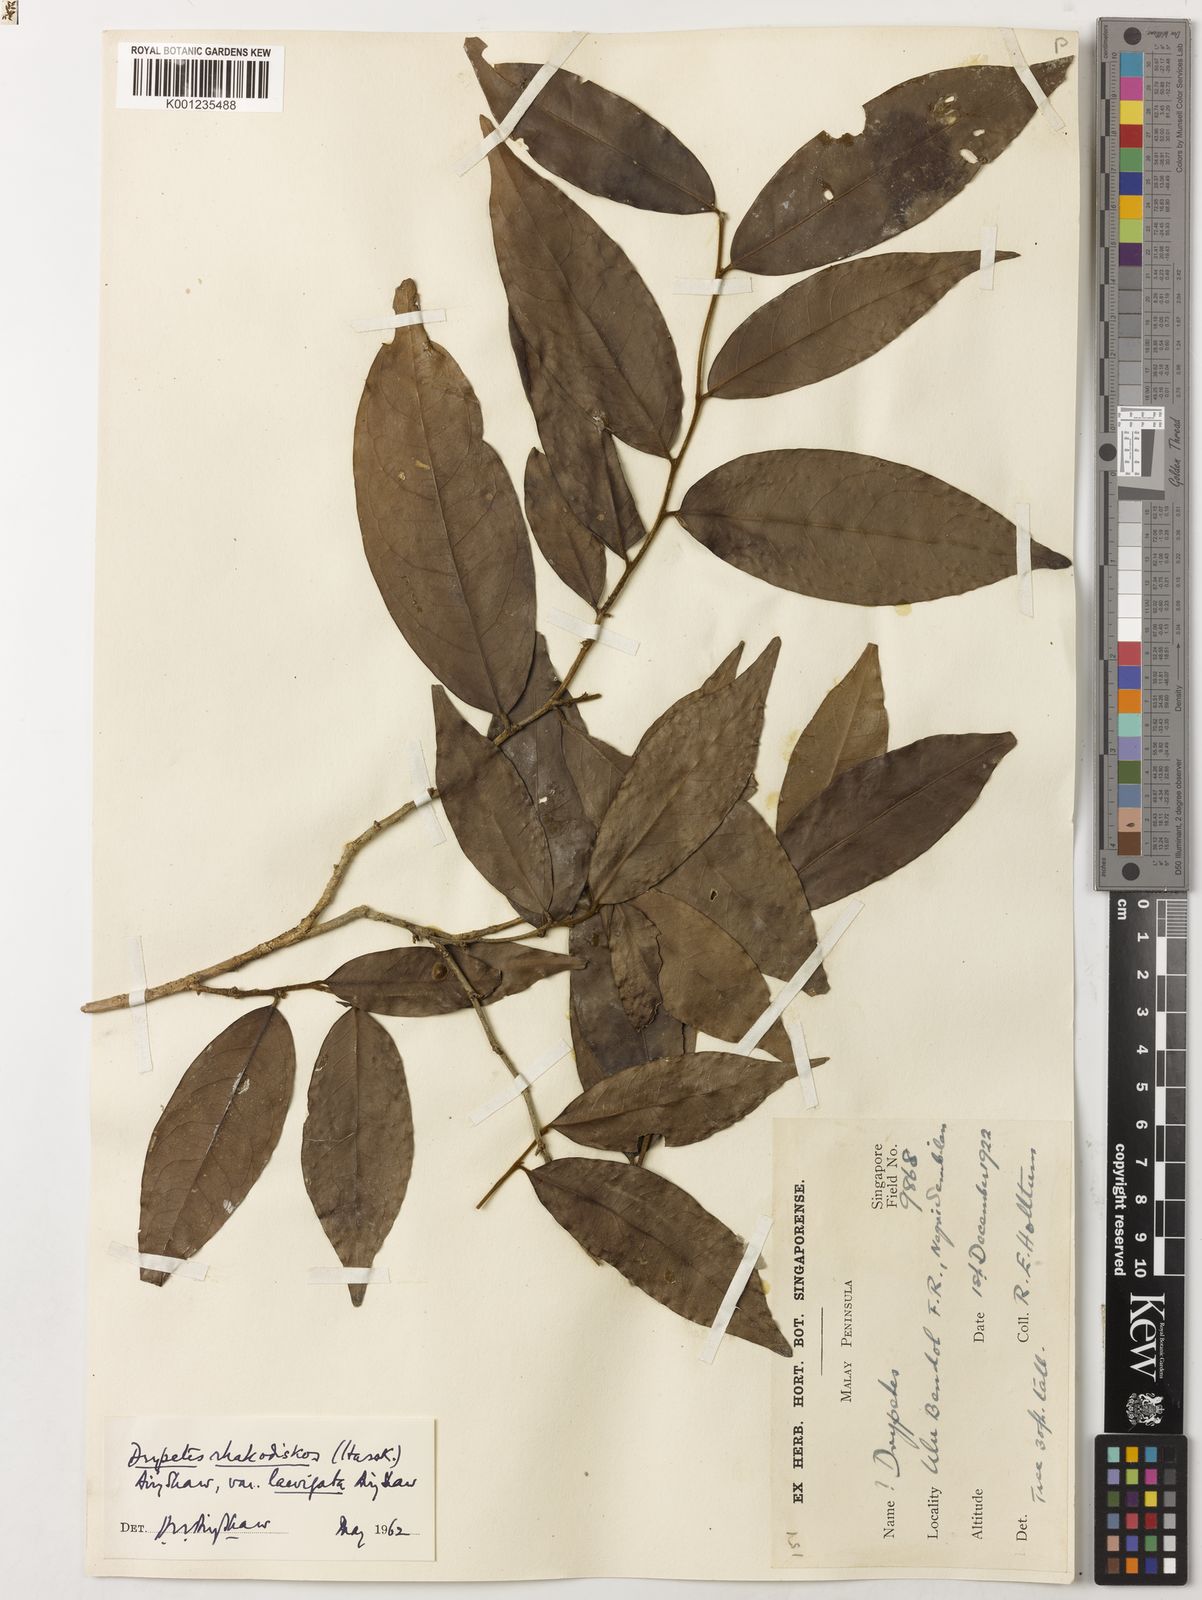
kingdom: Plantae
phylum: Tracheophyta
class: Magnoliopsida
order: Malpighiales
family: Putranjivaceae
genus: Drypetes
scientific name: Drypetes rhakodiskos
